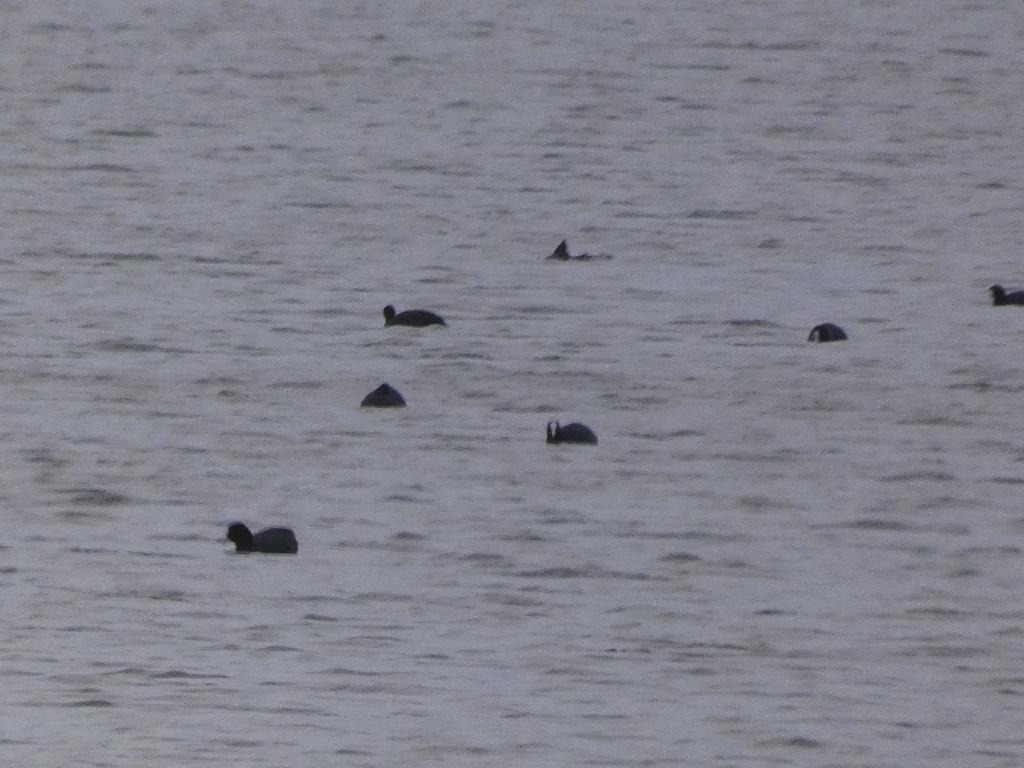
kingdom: Animalia
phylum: Chordata
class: Aves
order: Gruiformes
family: Rallidae
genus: Fulica
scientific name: Fulica atra
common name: Blishøne
